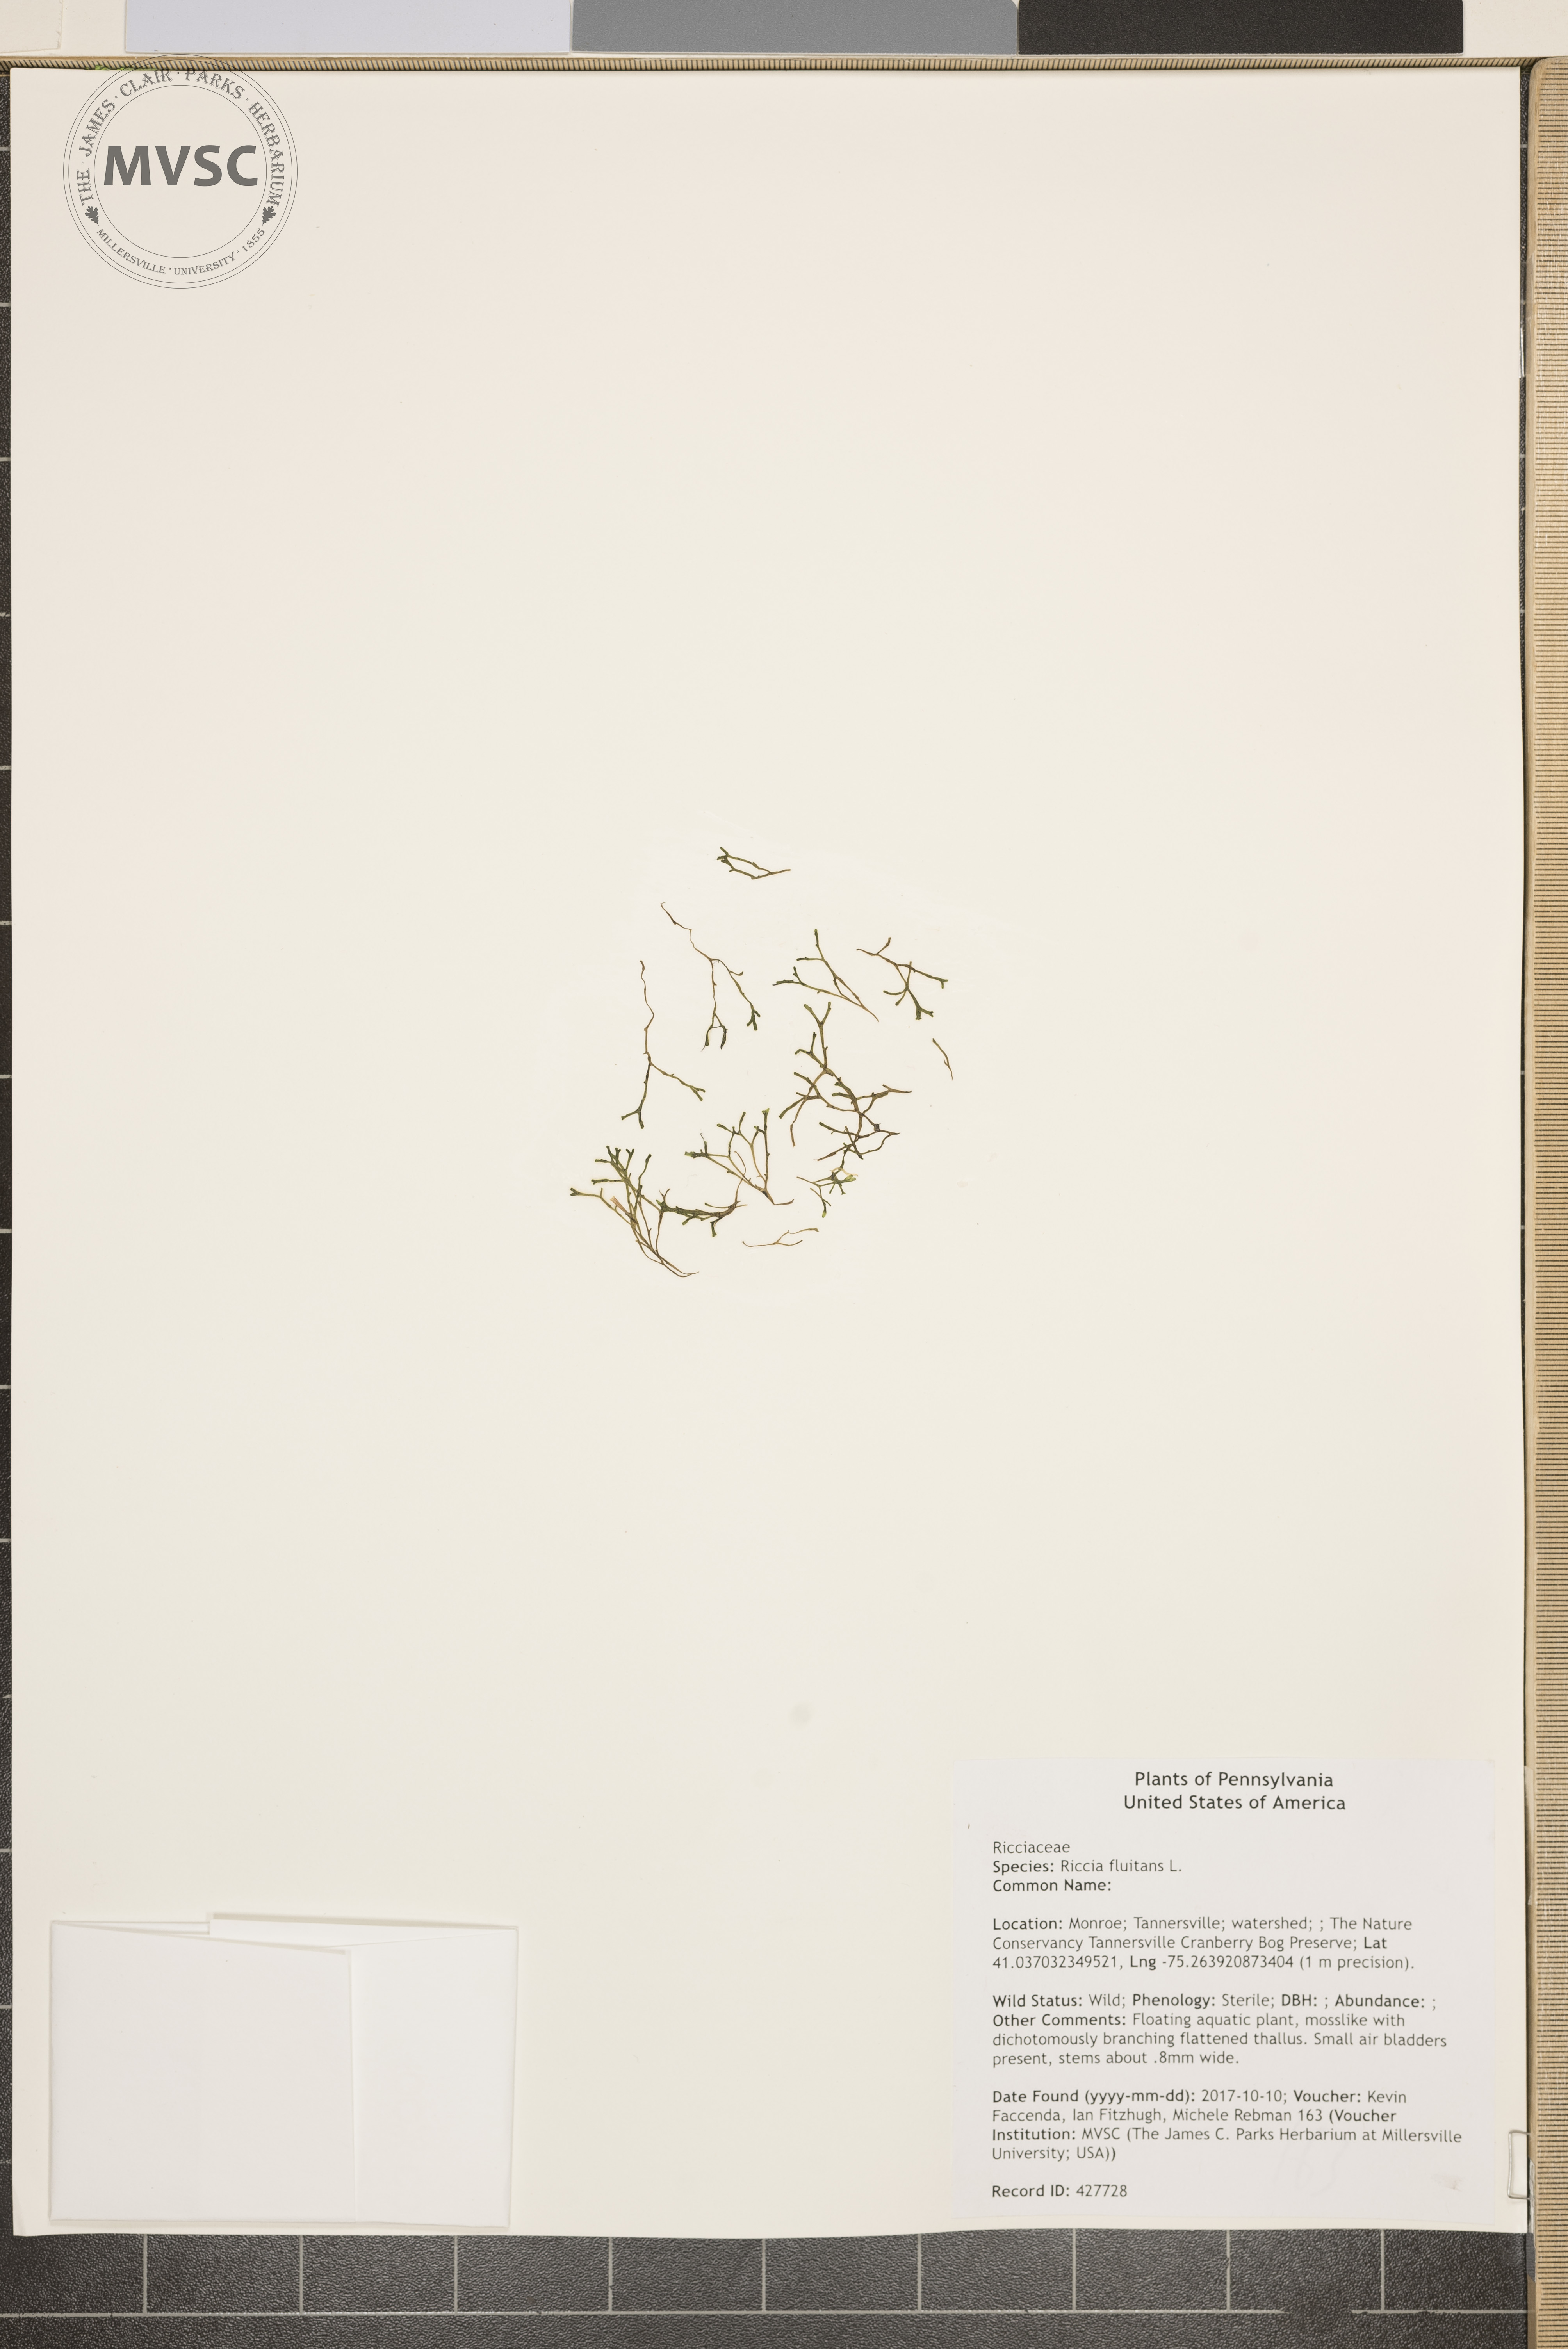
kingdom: Plantae
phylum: Marchantiophyta
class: Marchantiopsida
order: Marchantiales
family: Ricciaceae
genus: Riccia
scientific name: Riccia fluitans
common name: Floating crystalwort
